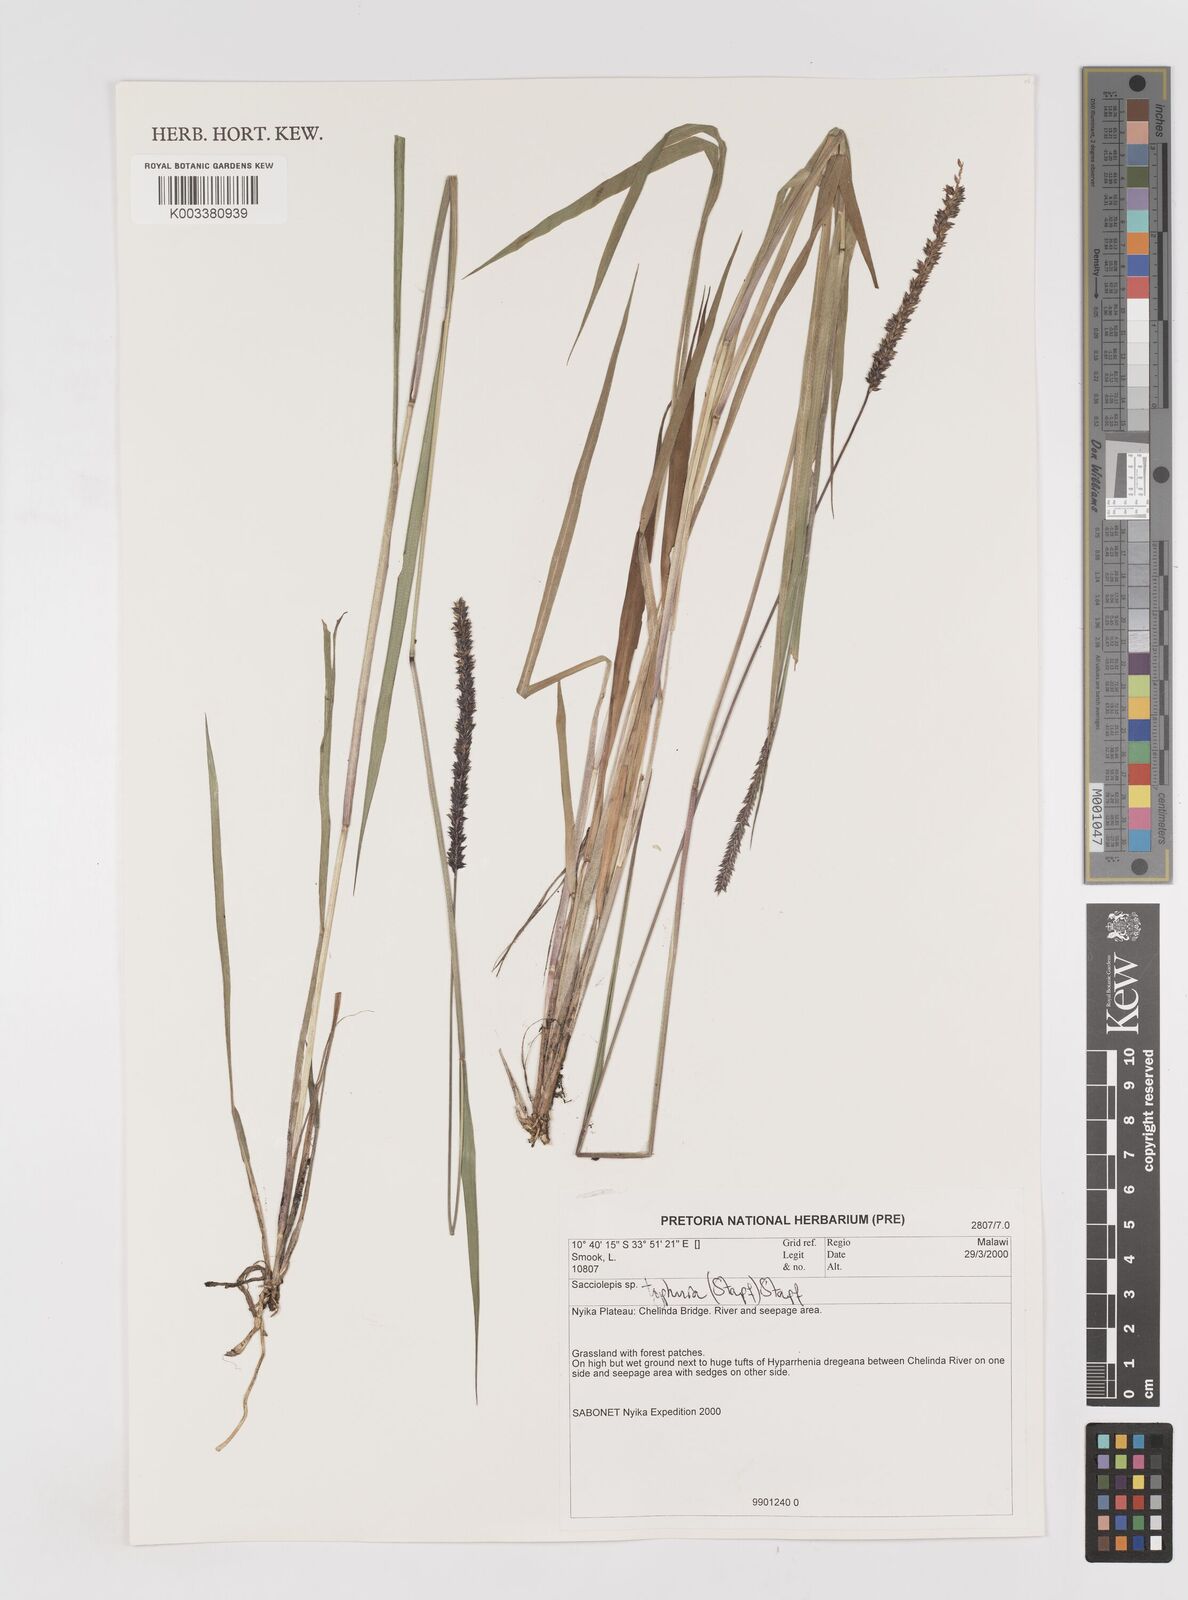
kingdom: Plantae
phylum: Tracheophyta
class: Liliopsida
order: Poales
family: Poaceae
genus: Sacciolepis
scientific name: Sacciolepis typhura
